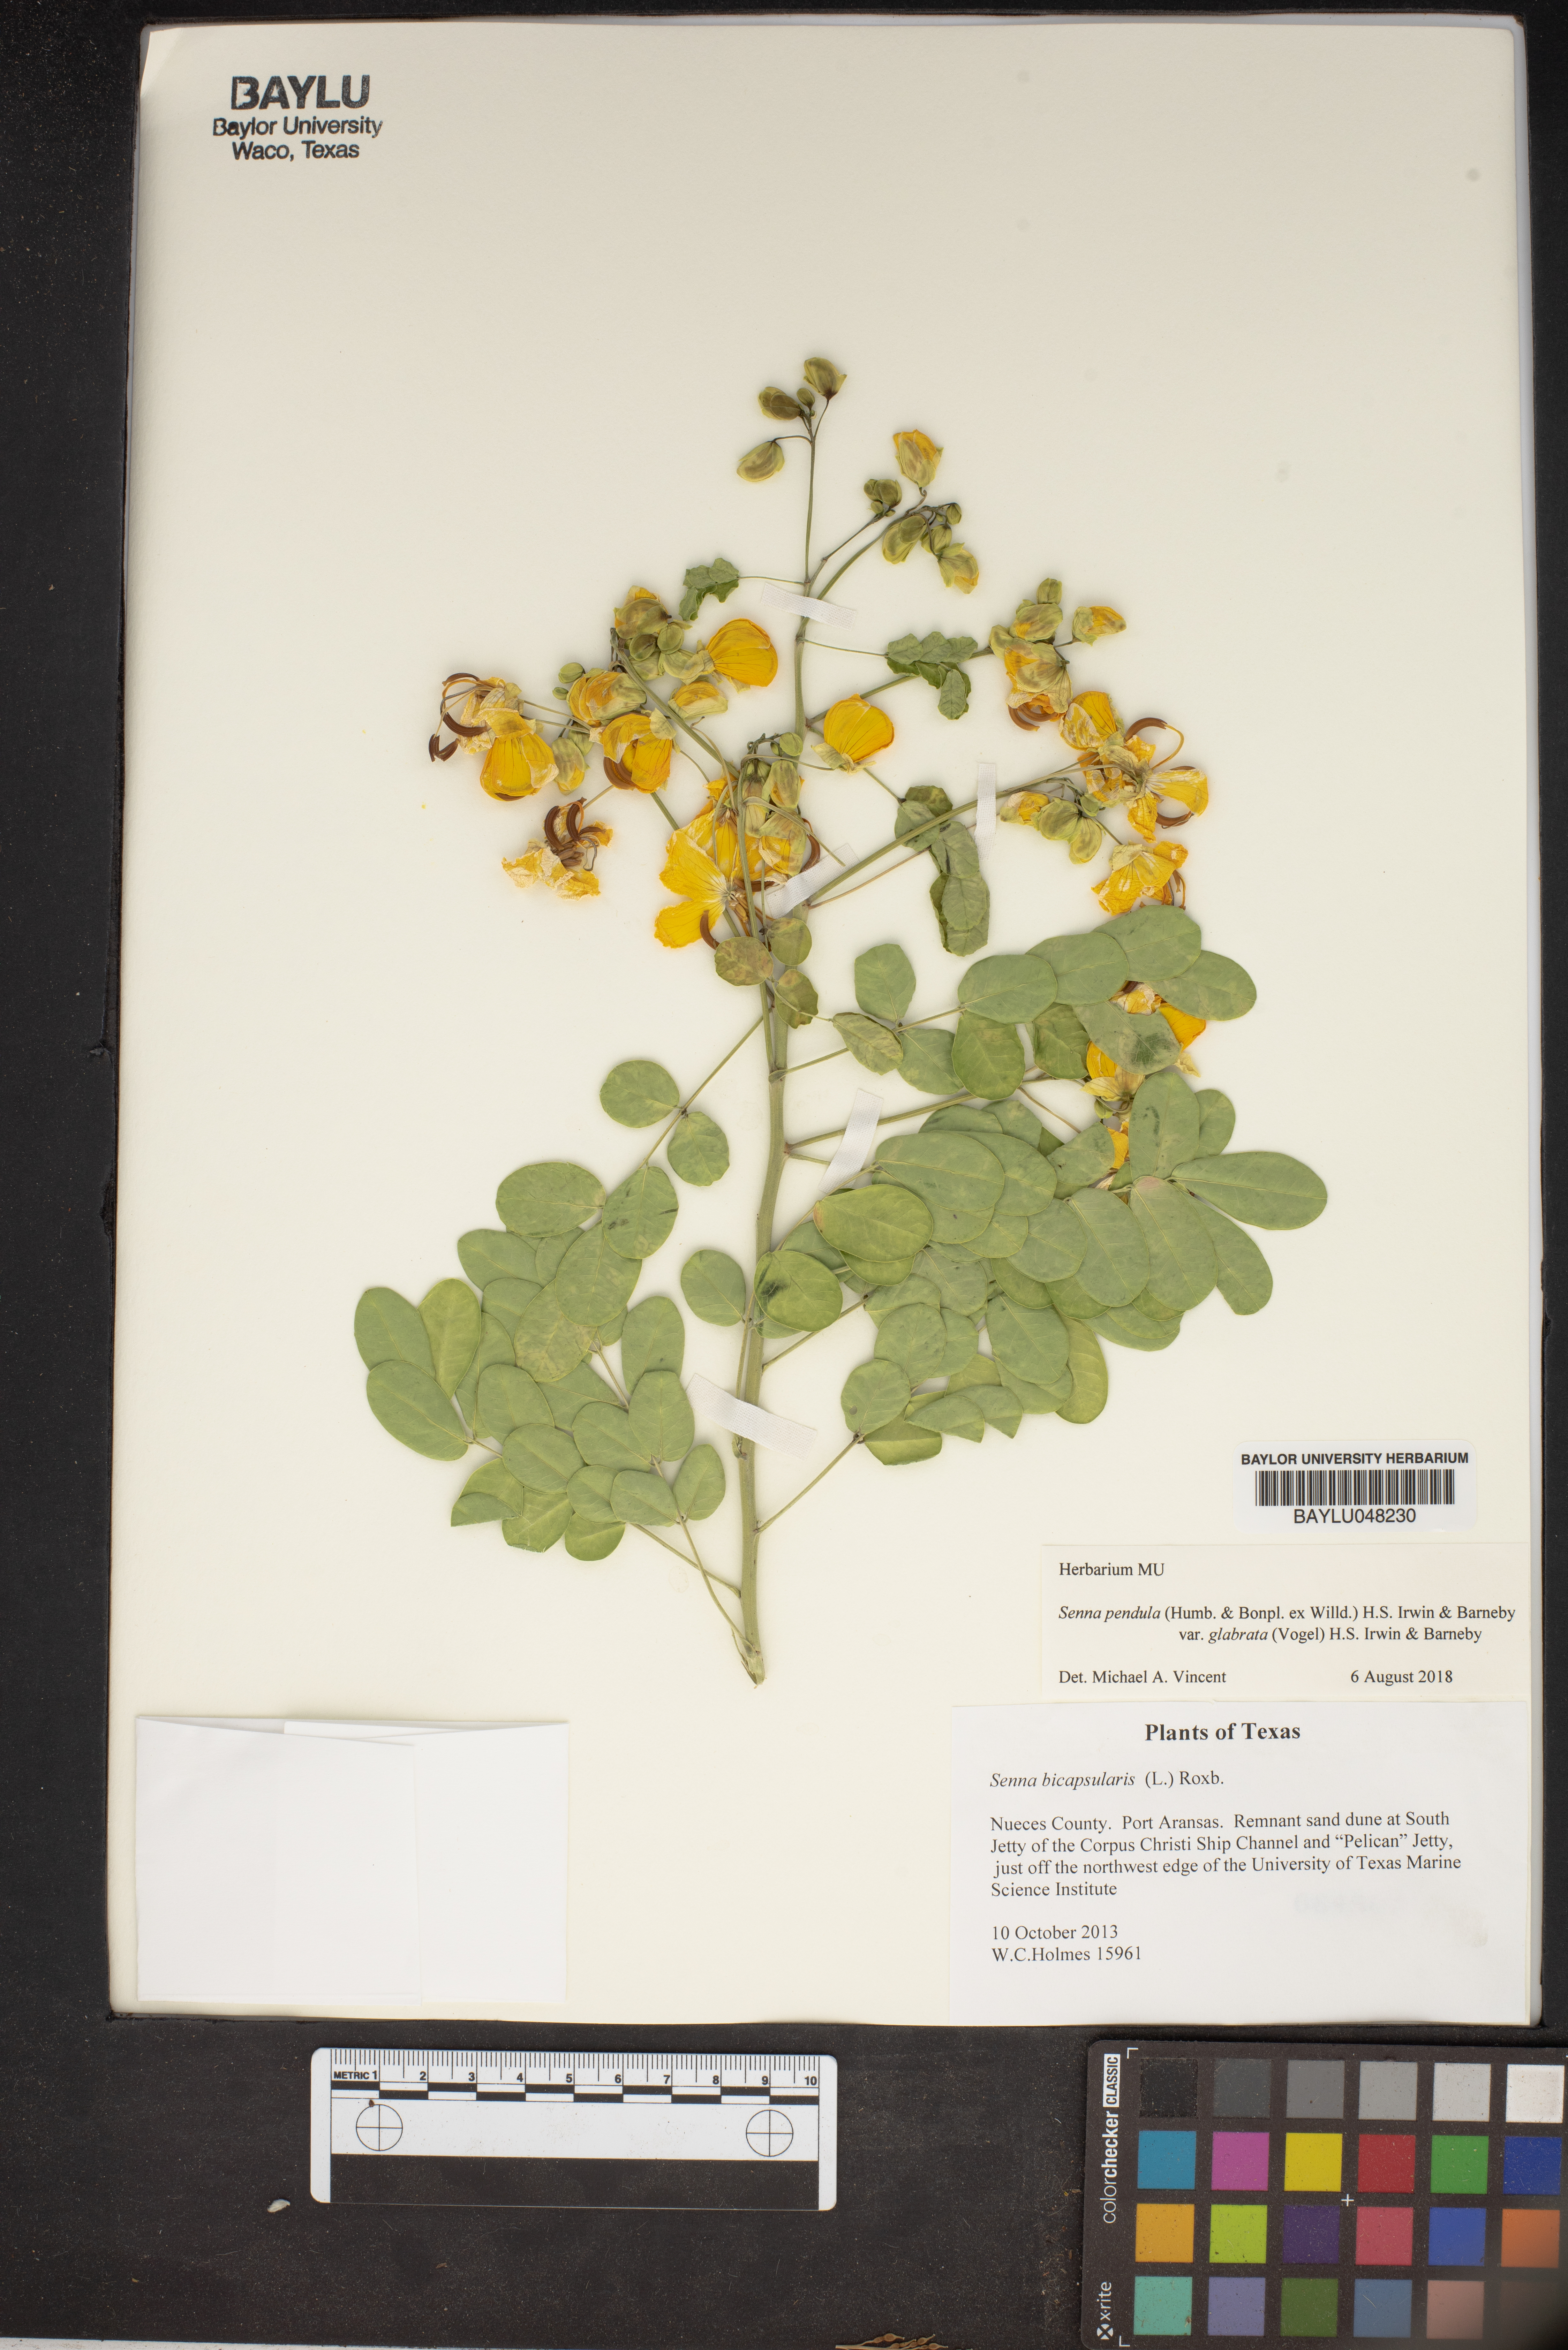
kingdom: Plantae
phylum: Tracheophyta
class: Magnoliopsida
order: Fabales
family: Fabaceae
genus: Senna
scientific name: Senna pendula
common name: Easter cassia
